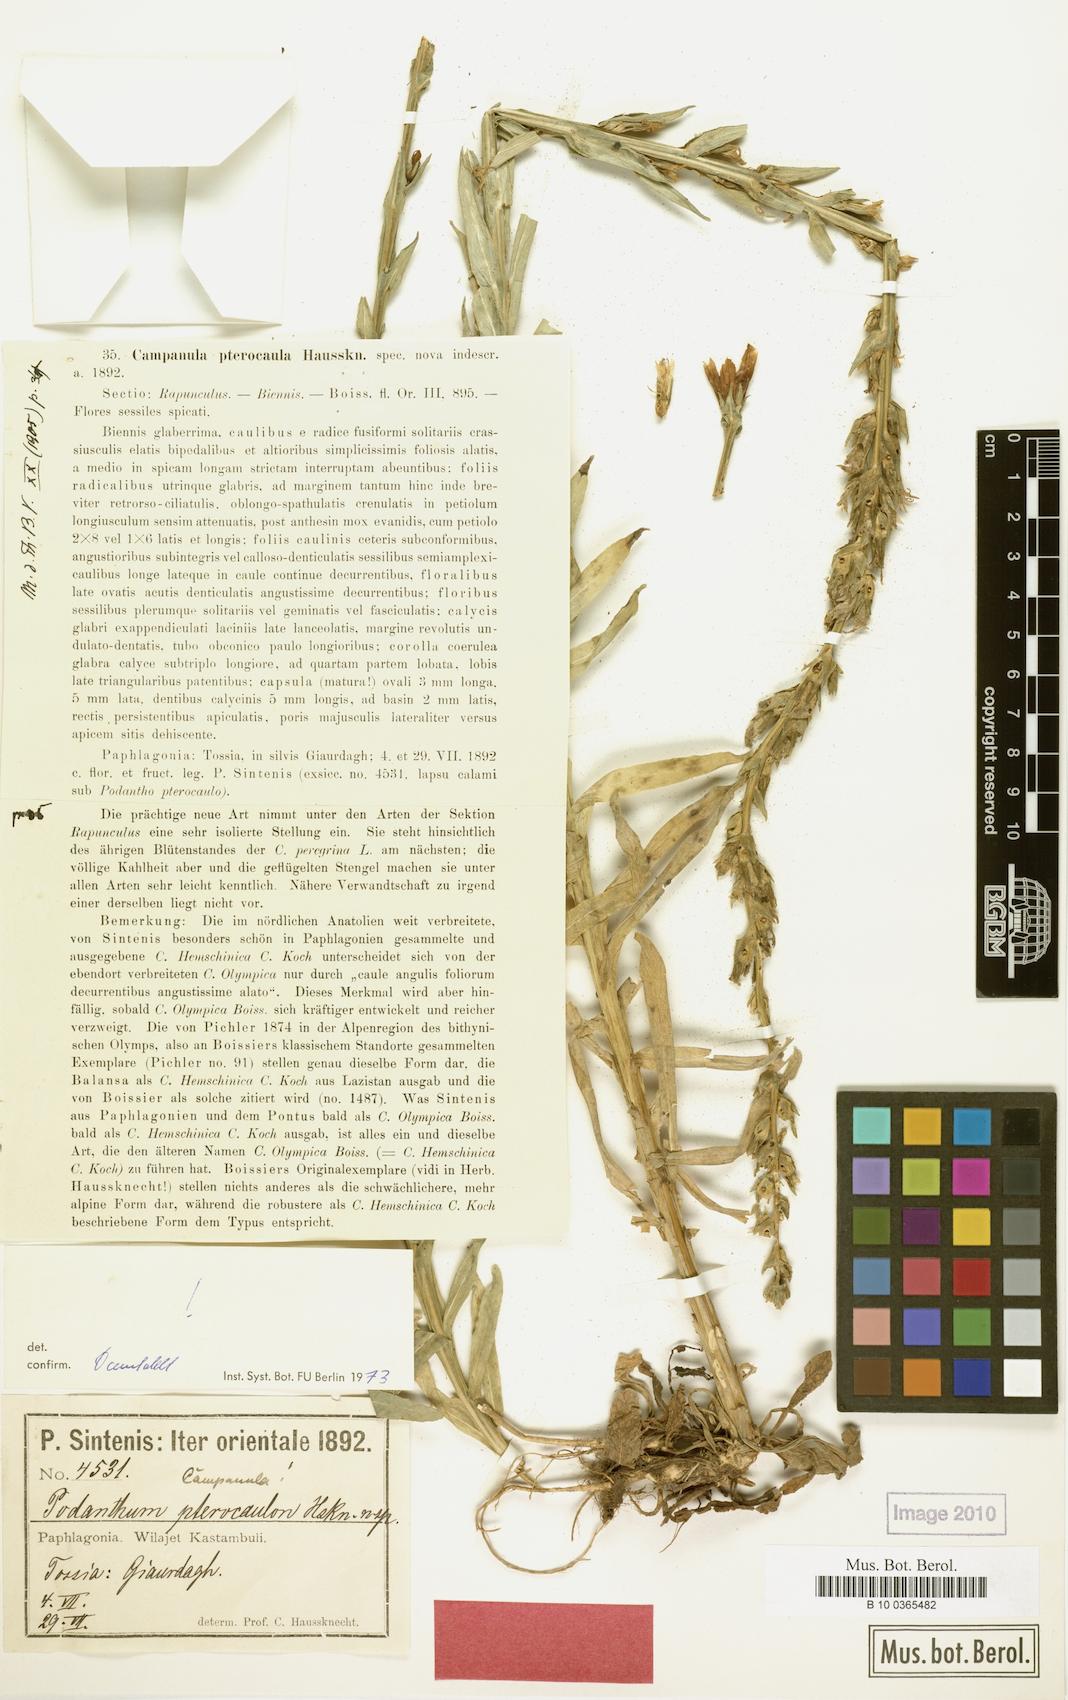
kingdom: Plantae
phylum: Tracheophyta
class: Magnoliopsida
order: Asterales
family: Campanulaceae
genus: Campanula
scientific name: Campanula pterocaula
